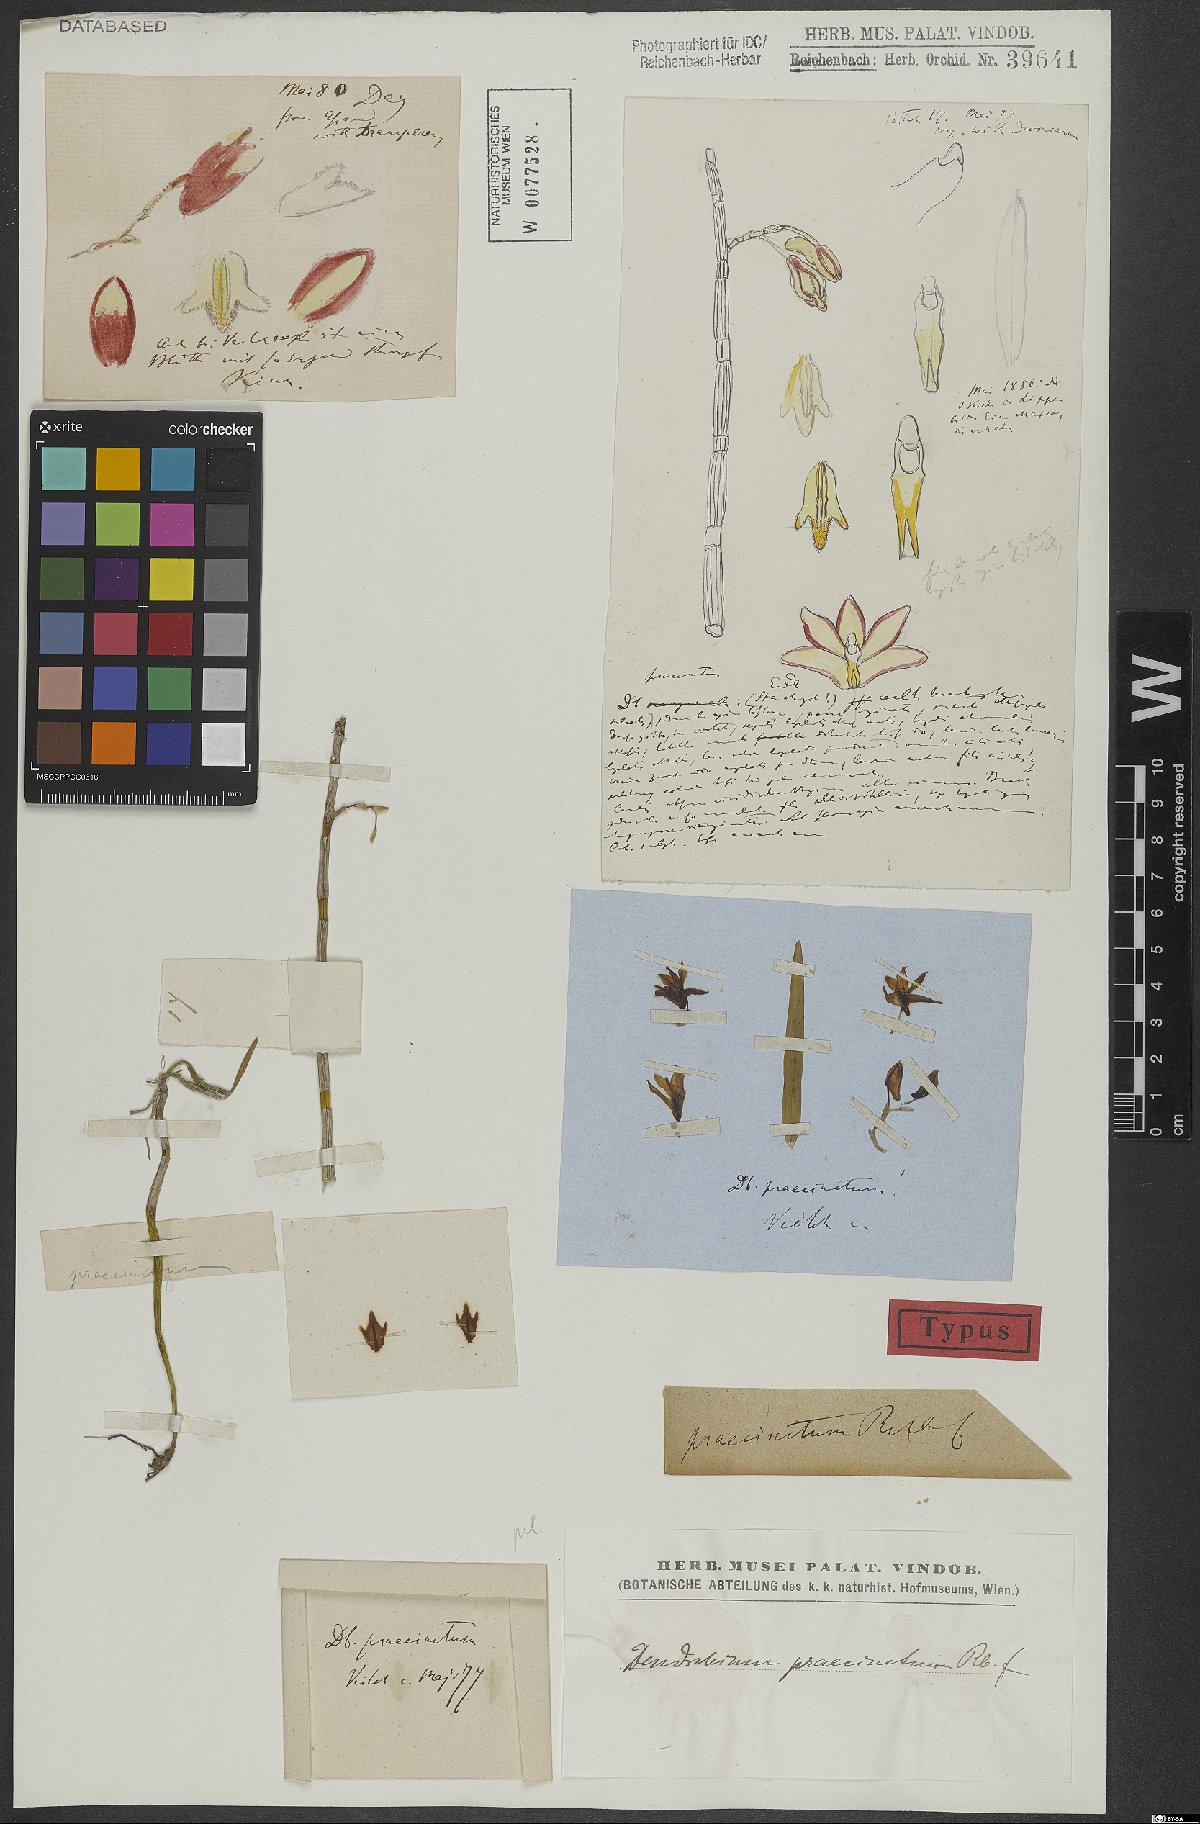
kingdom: Plantae
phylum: Tracheophyta
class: Liliopsida
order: Asparagales
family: Orchidaceae
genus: Dendrobium
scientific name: Dendrobium praecinctum
